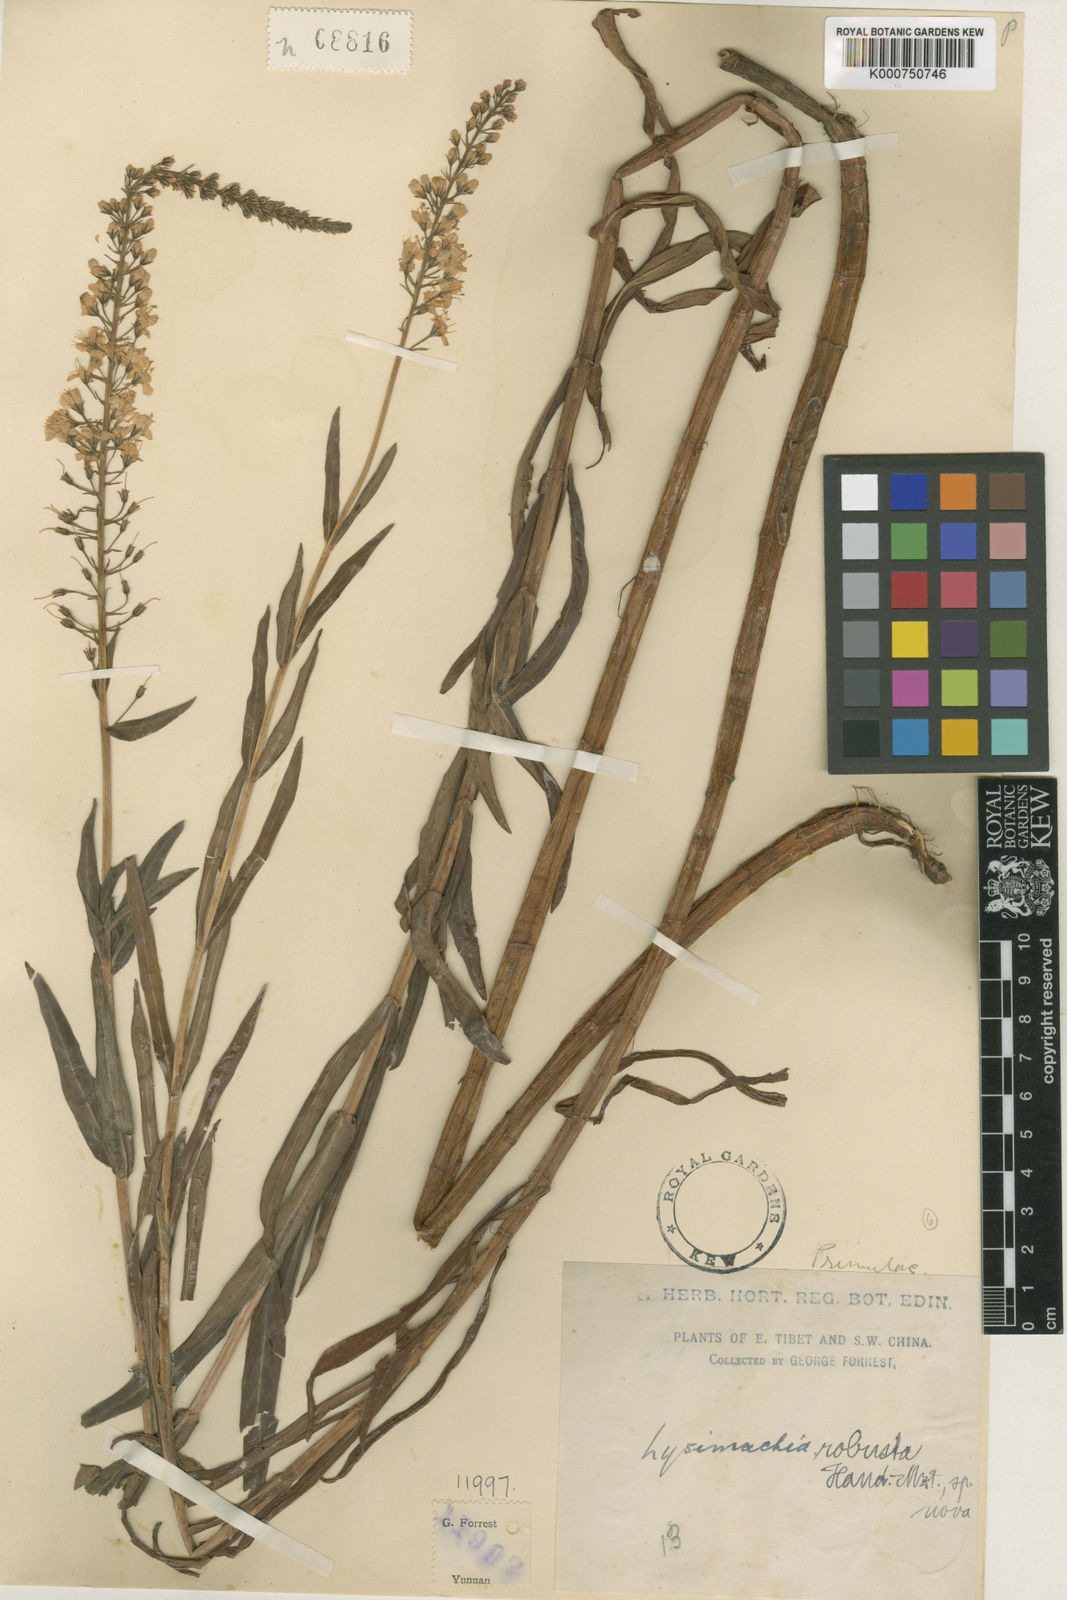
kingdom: Plantae
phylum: Tracheophyta
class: Magnoliopsida
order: Ericales
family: Primulaceae
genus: Lysimachia
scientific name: Lysimachia robusta
